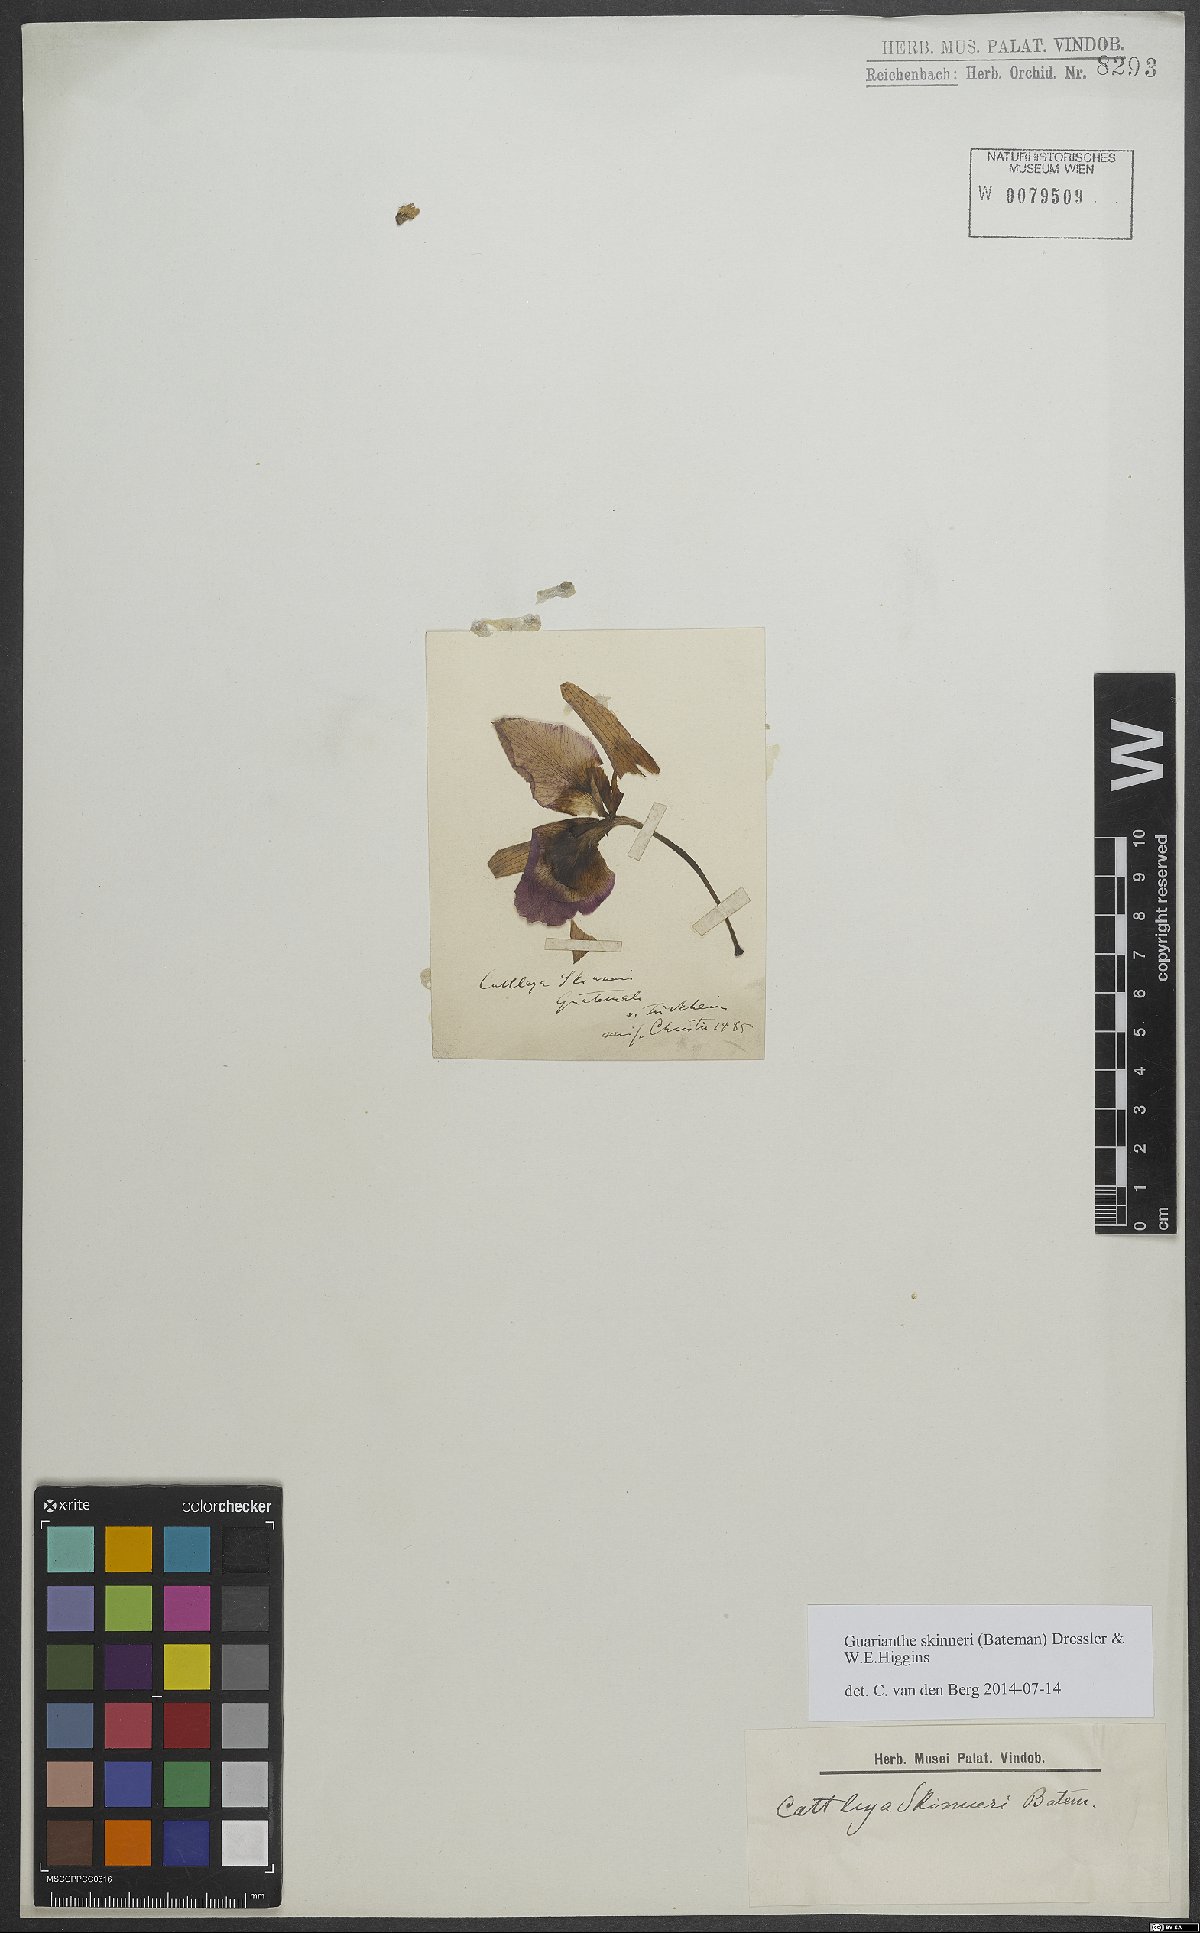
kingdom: Plantae
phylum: Tracheophyta
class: Liliopsida
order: Asparagales
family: Orchidaceae
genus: Guarianthe
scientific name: Guarianthe skinneri
